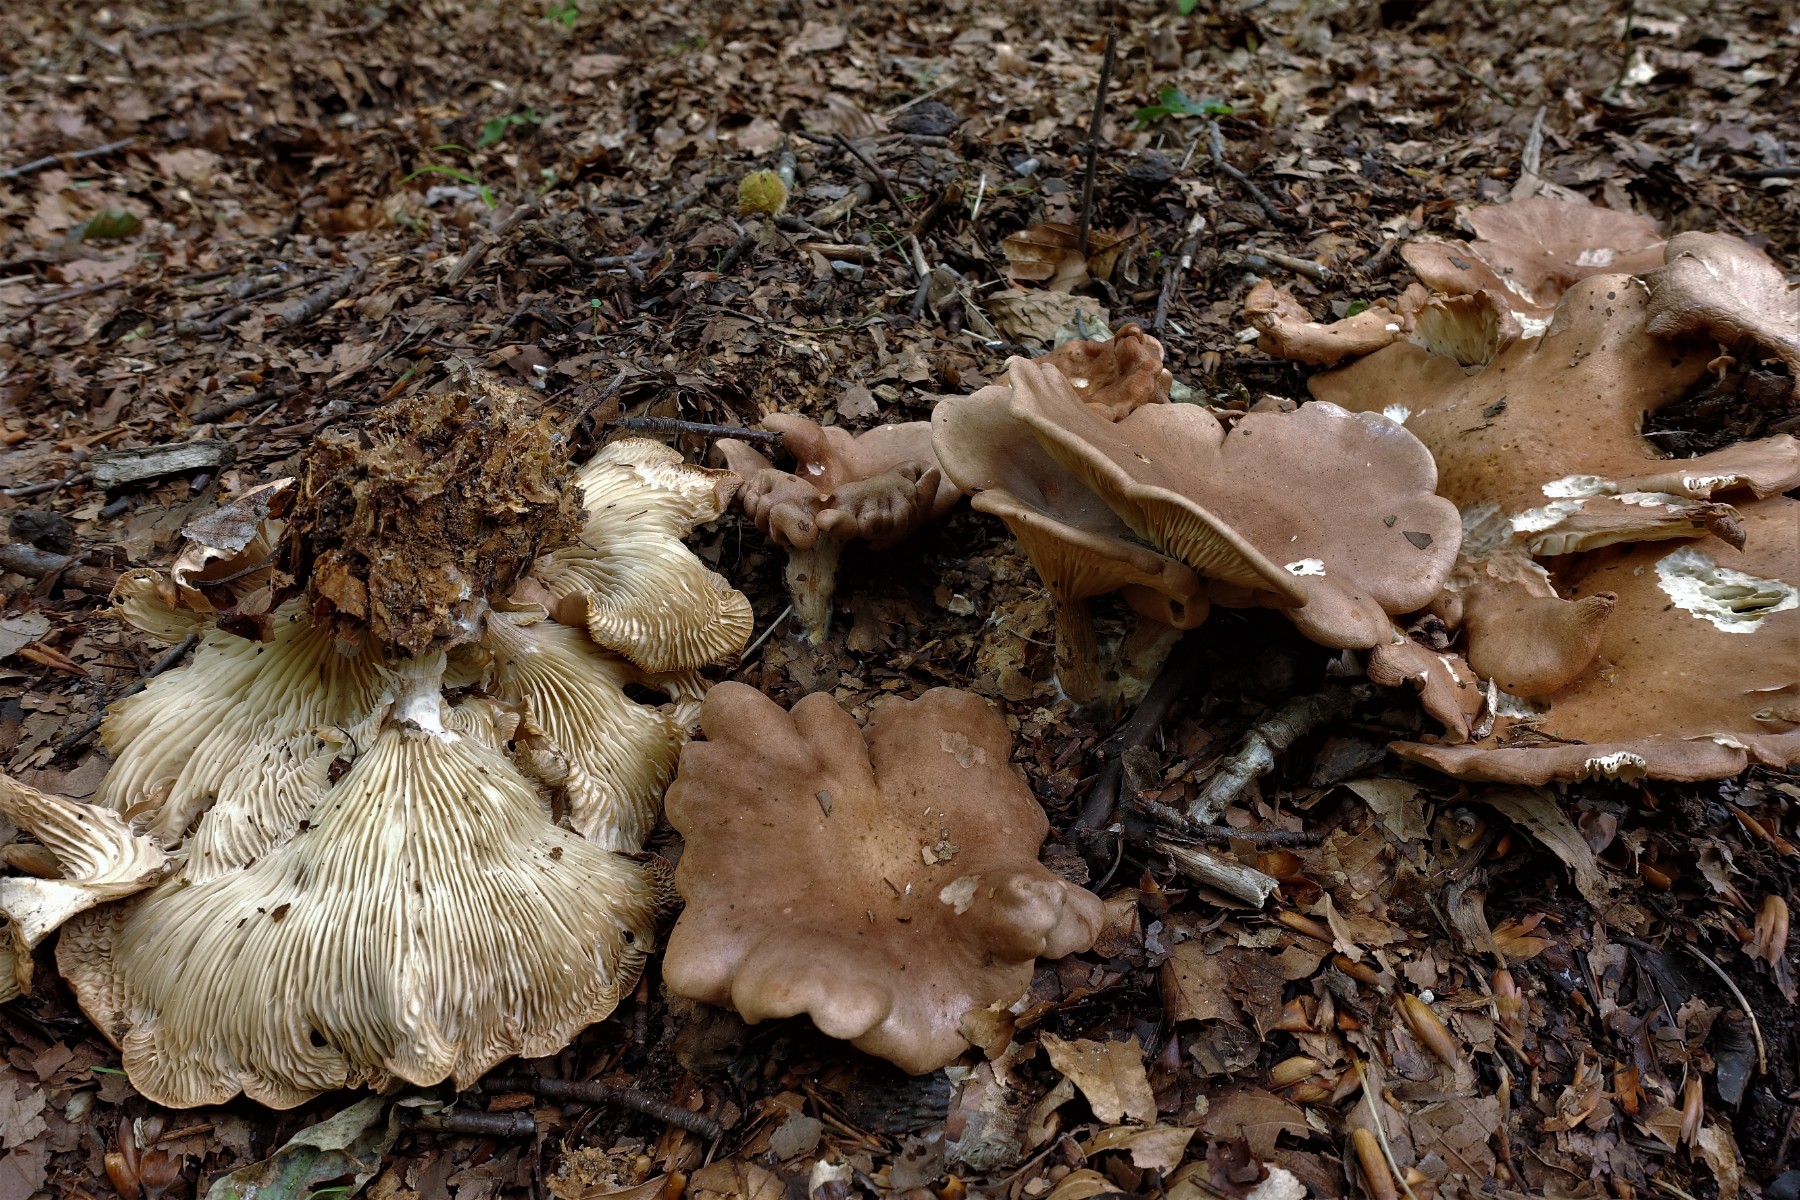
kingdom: Fungi
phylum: Basidiomycota
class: Agaricomycetes
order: Agaricales
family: Tricholomataceae
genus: Infundibulicybe
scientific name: Infundibulicybe gibba
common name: almindelig tragthat
